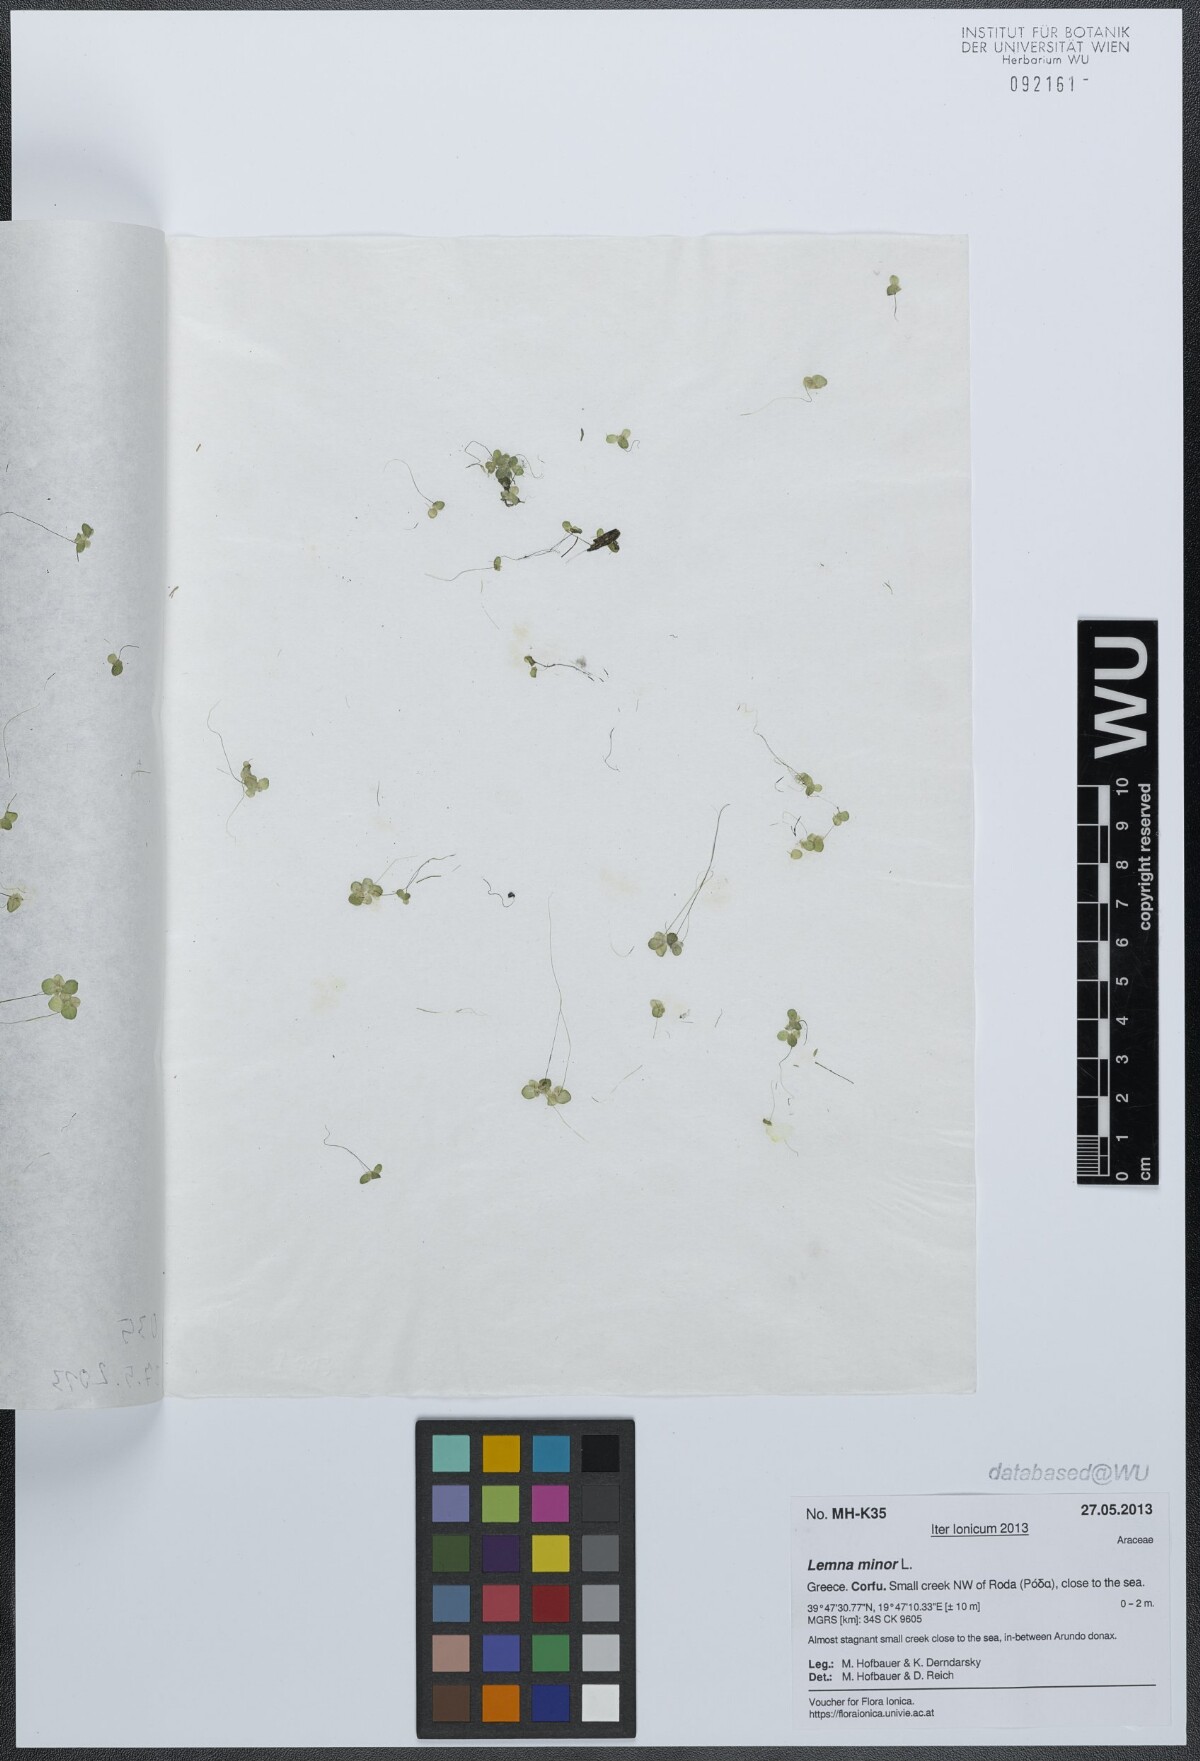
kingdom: Plantae
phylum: Tracheophyta
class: Liliopsida
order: Alismatales
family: Araceae
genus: Lemna
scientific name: Lemna minor
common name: Common duckweed
